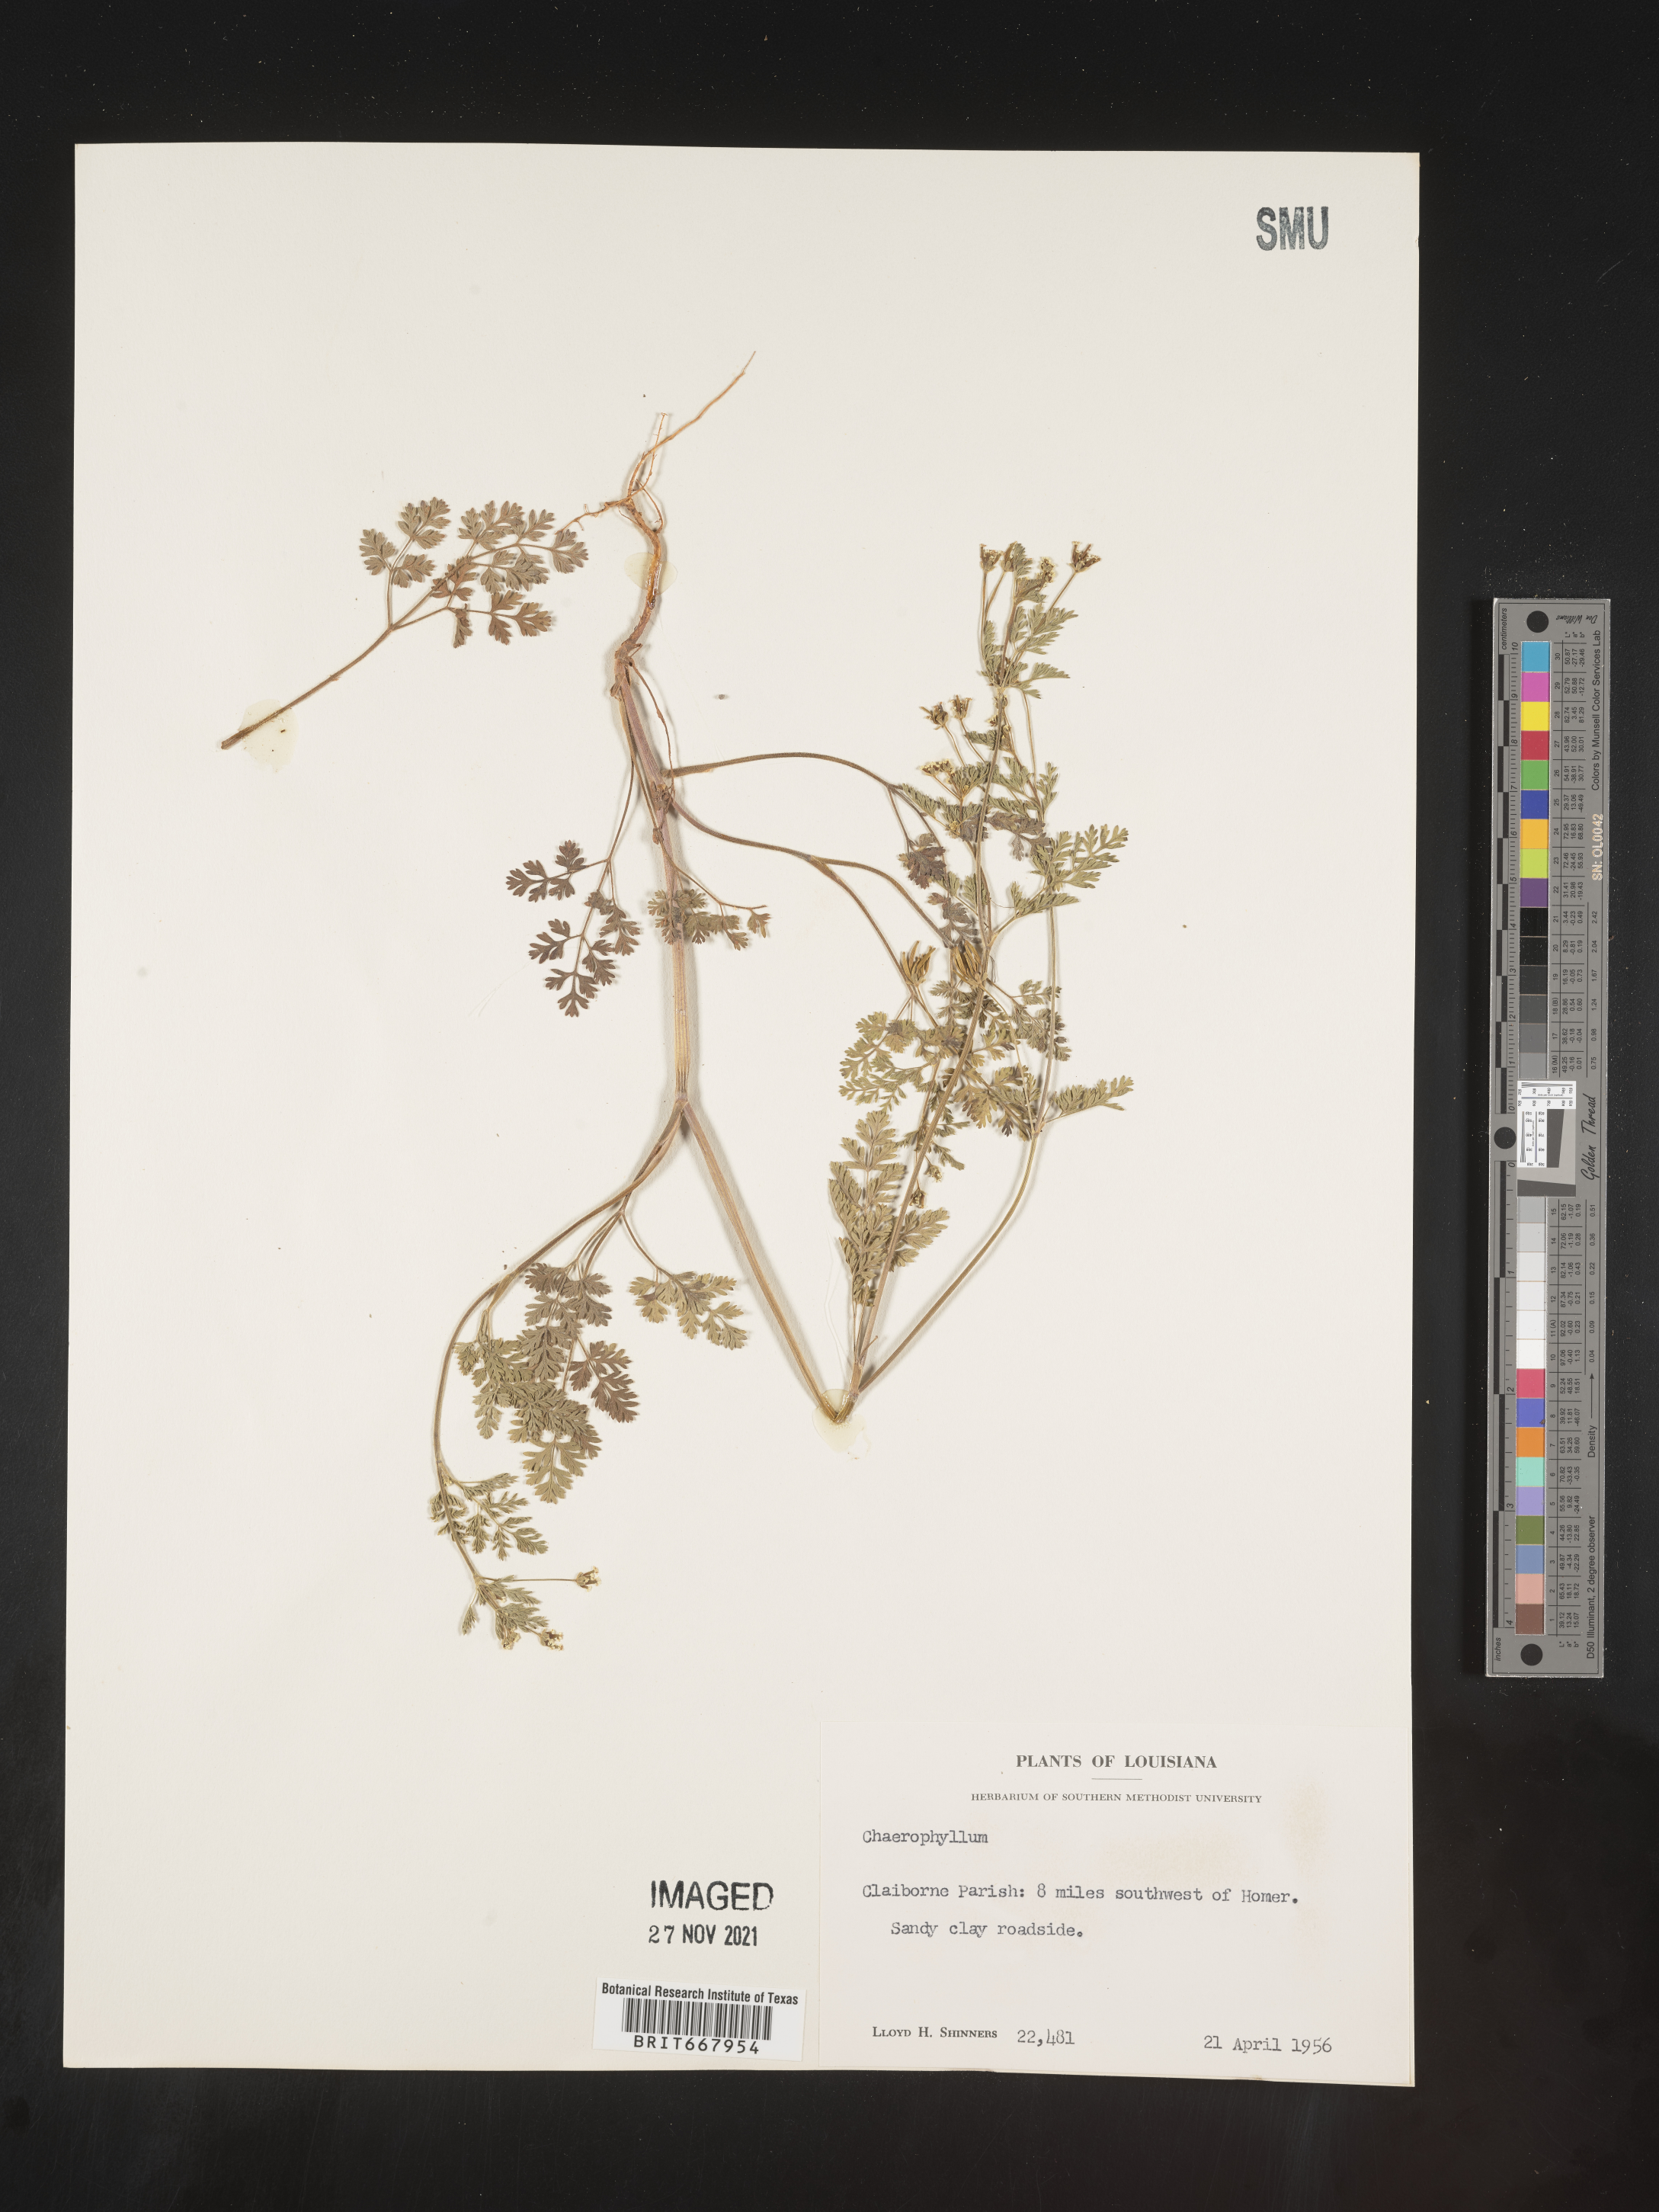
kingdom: Plantae
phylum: Tracheophyta
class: Magnoliopsida
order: Apiales
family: Apiaceae
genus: Chaerophyllum
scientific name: Chaerophyllum tainturieri
